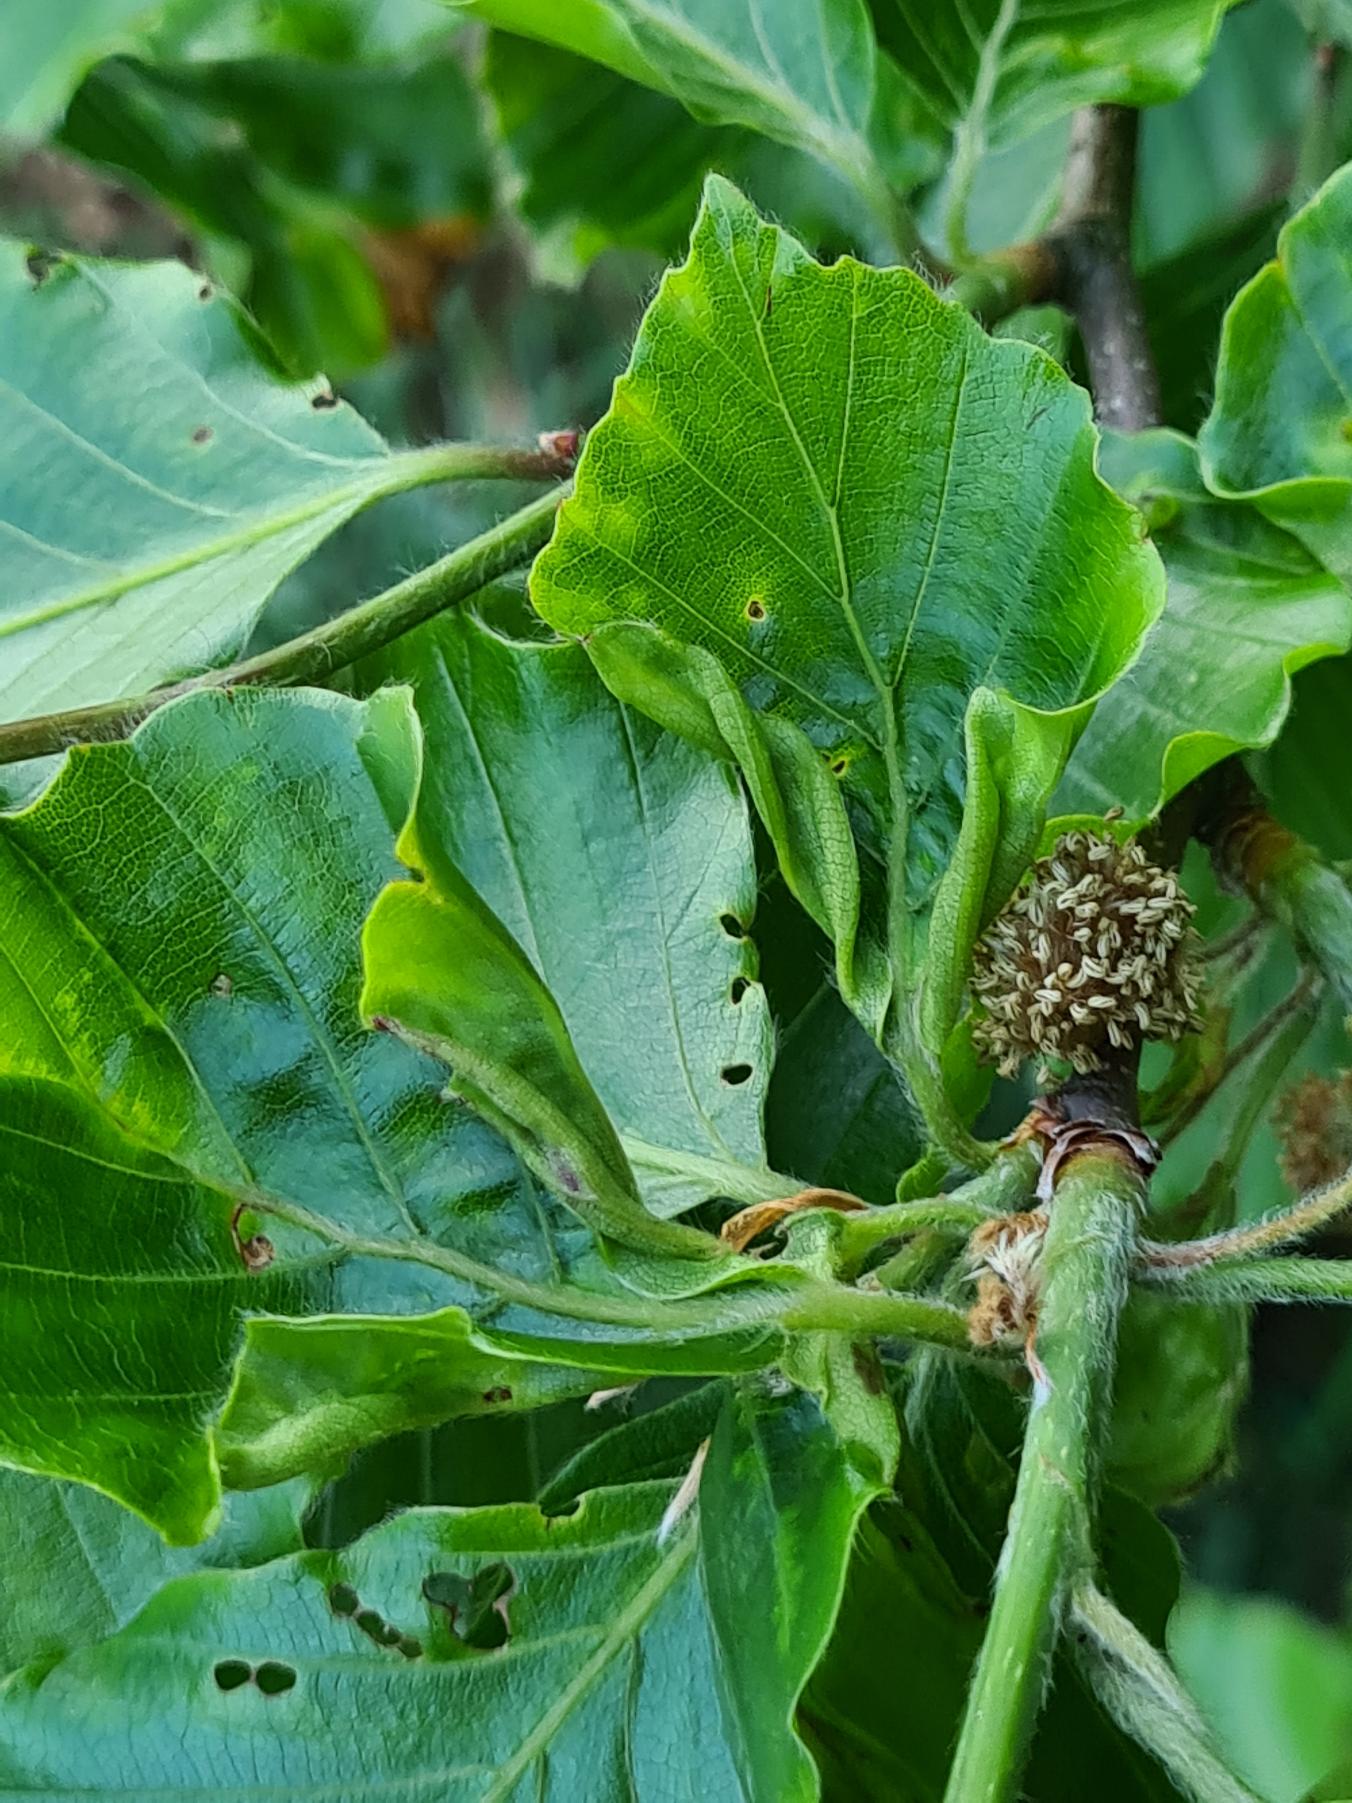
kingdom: Animalia
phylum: Arthropoda
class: Insecta
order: Diptera
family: Cecidomyiidae
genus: Phegomyia
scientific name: Phegomyia fagicola
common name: Bøgefoldegalmyg
